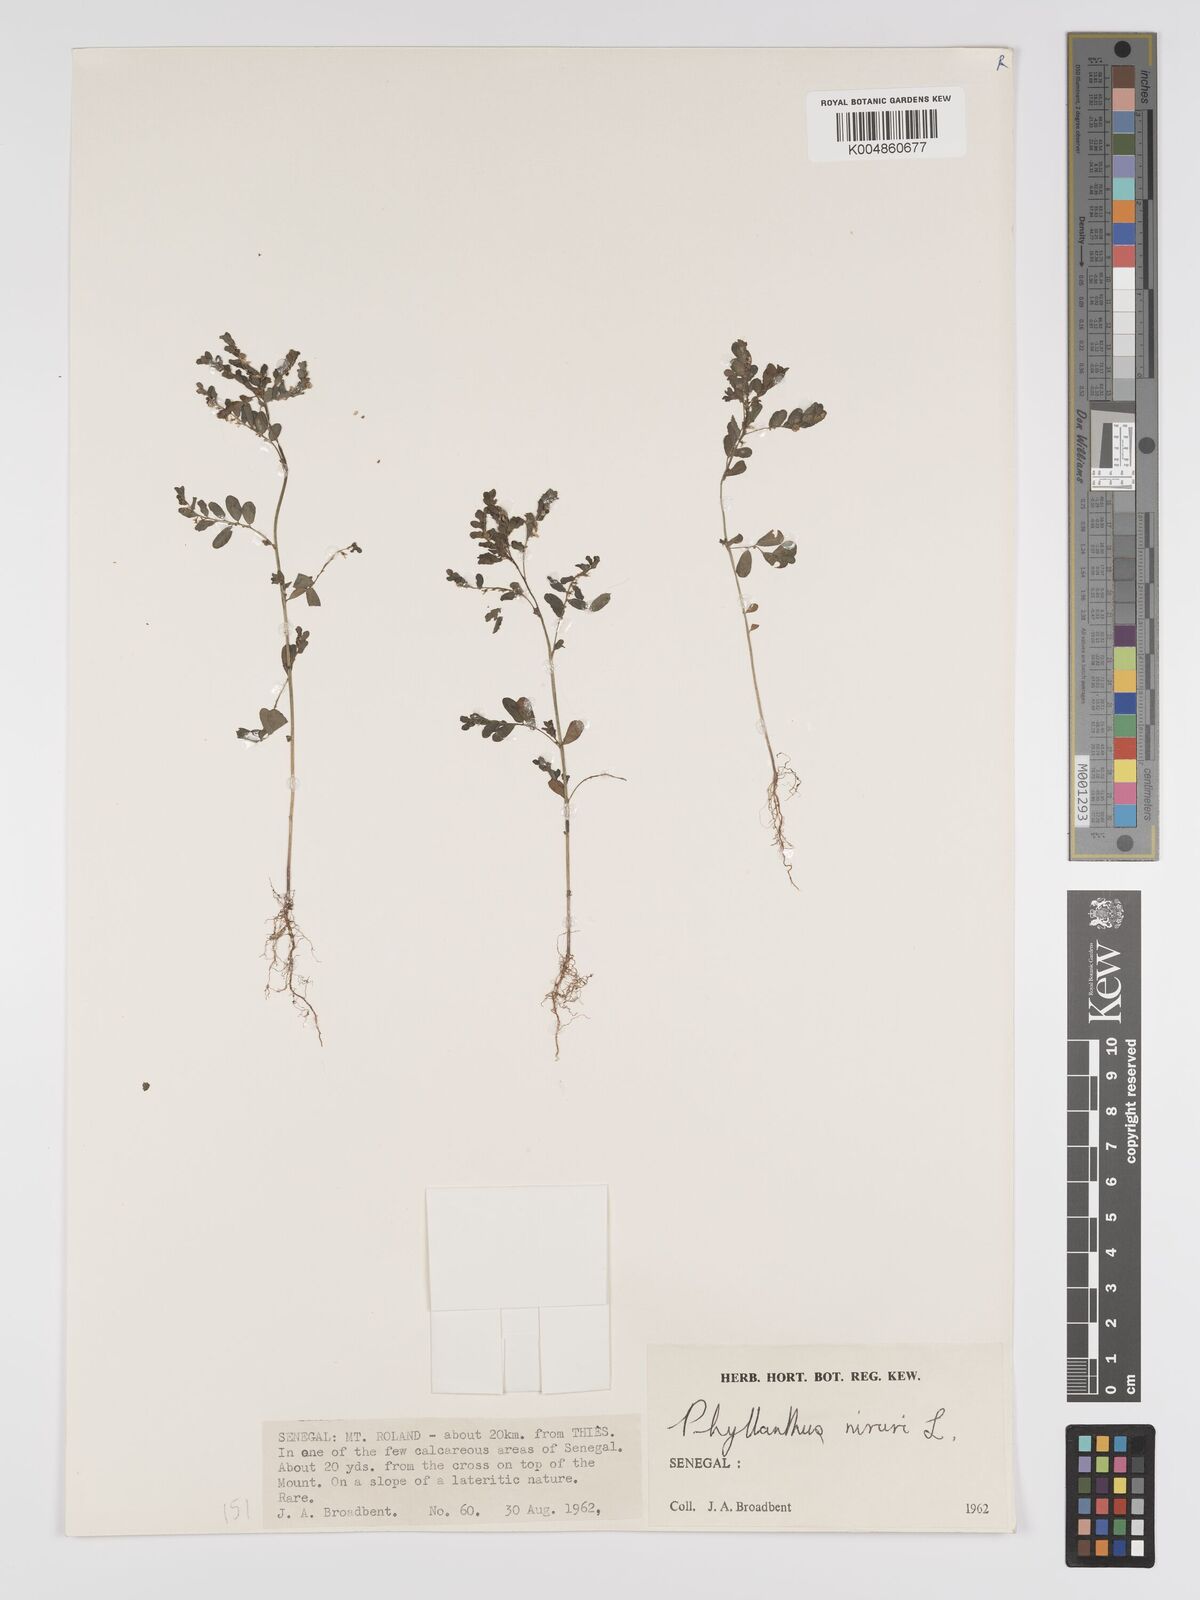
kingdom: Plantae
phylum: Tracheophyta
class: Magnoliopsida
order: Malpighiales
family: Phyllanthaceae
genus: Phyllanthus
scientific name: Phyllanthus fraternus
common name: Gulf leaf-flower
